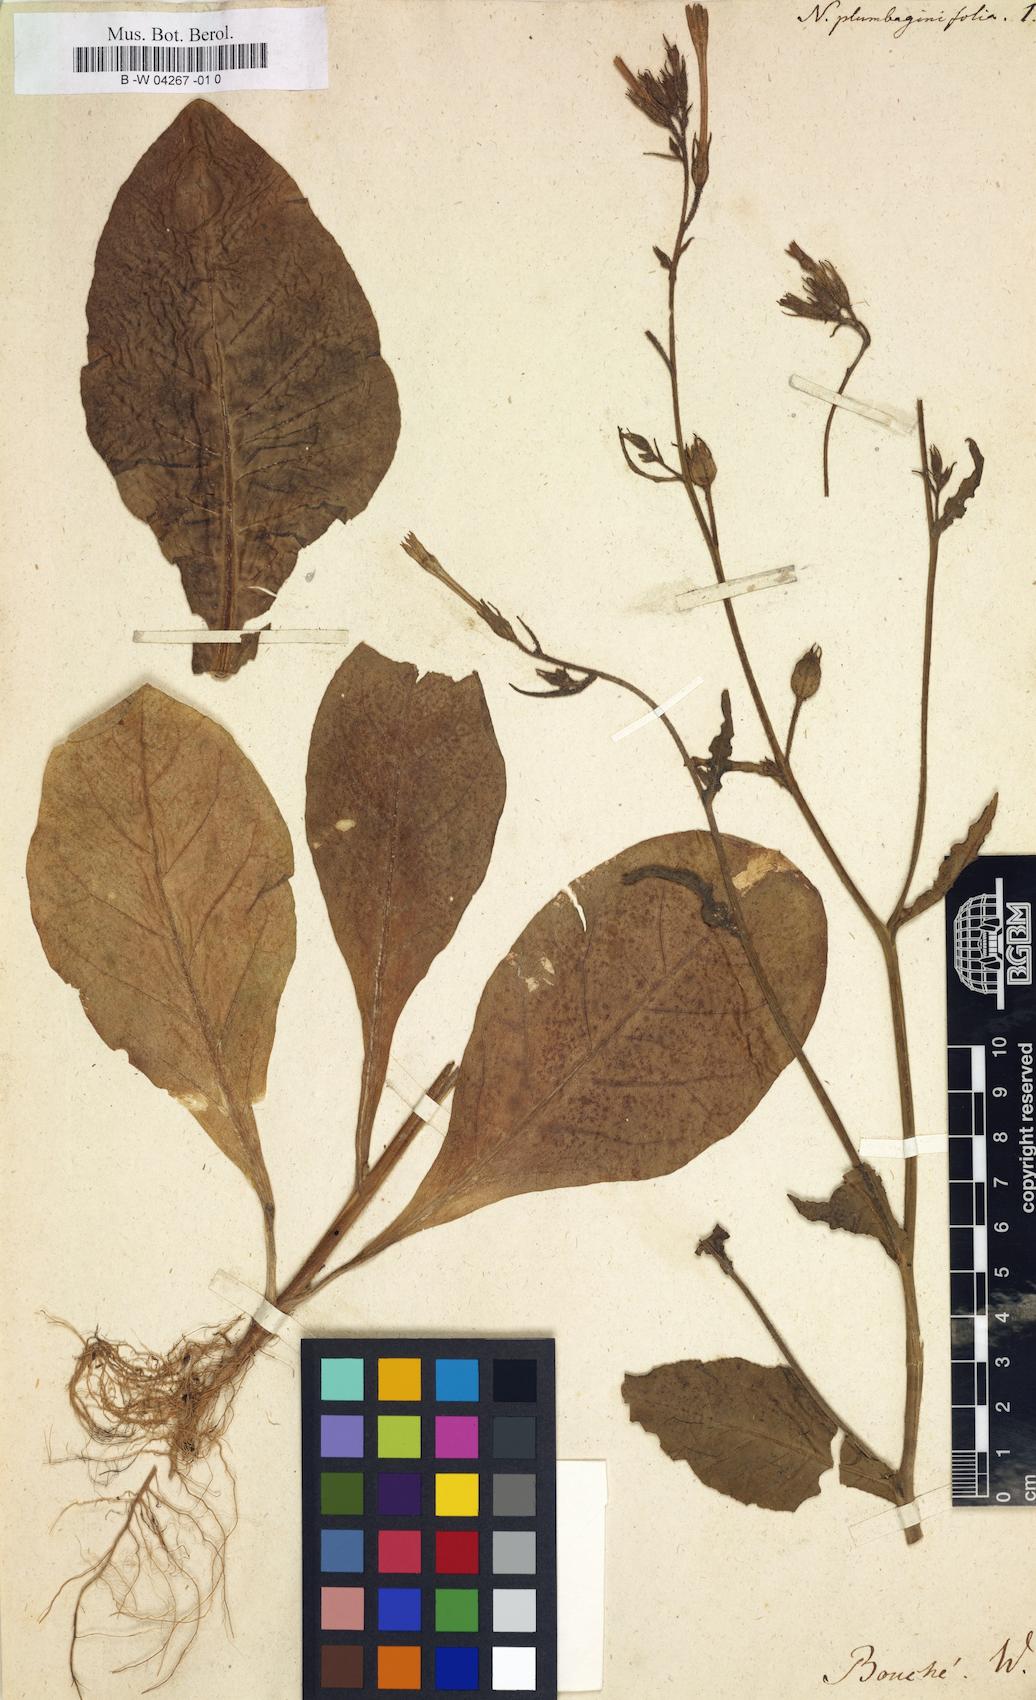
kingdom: Plantae
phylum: Tracheophyta
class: Magnoliopsida
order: Solanales
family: Solanaceae
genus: Nicotiana
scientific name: Nicotiana plumbaginifolia
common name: Tex-mex tobacco
